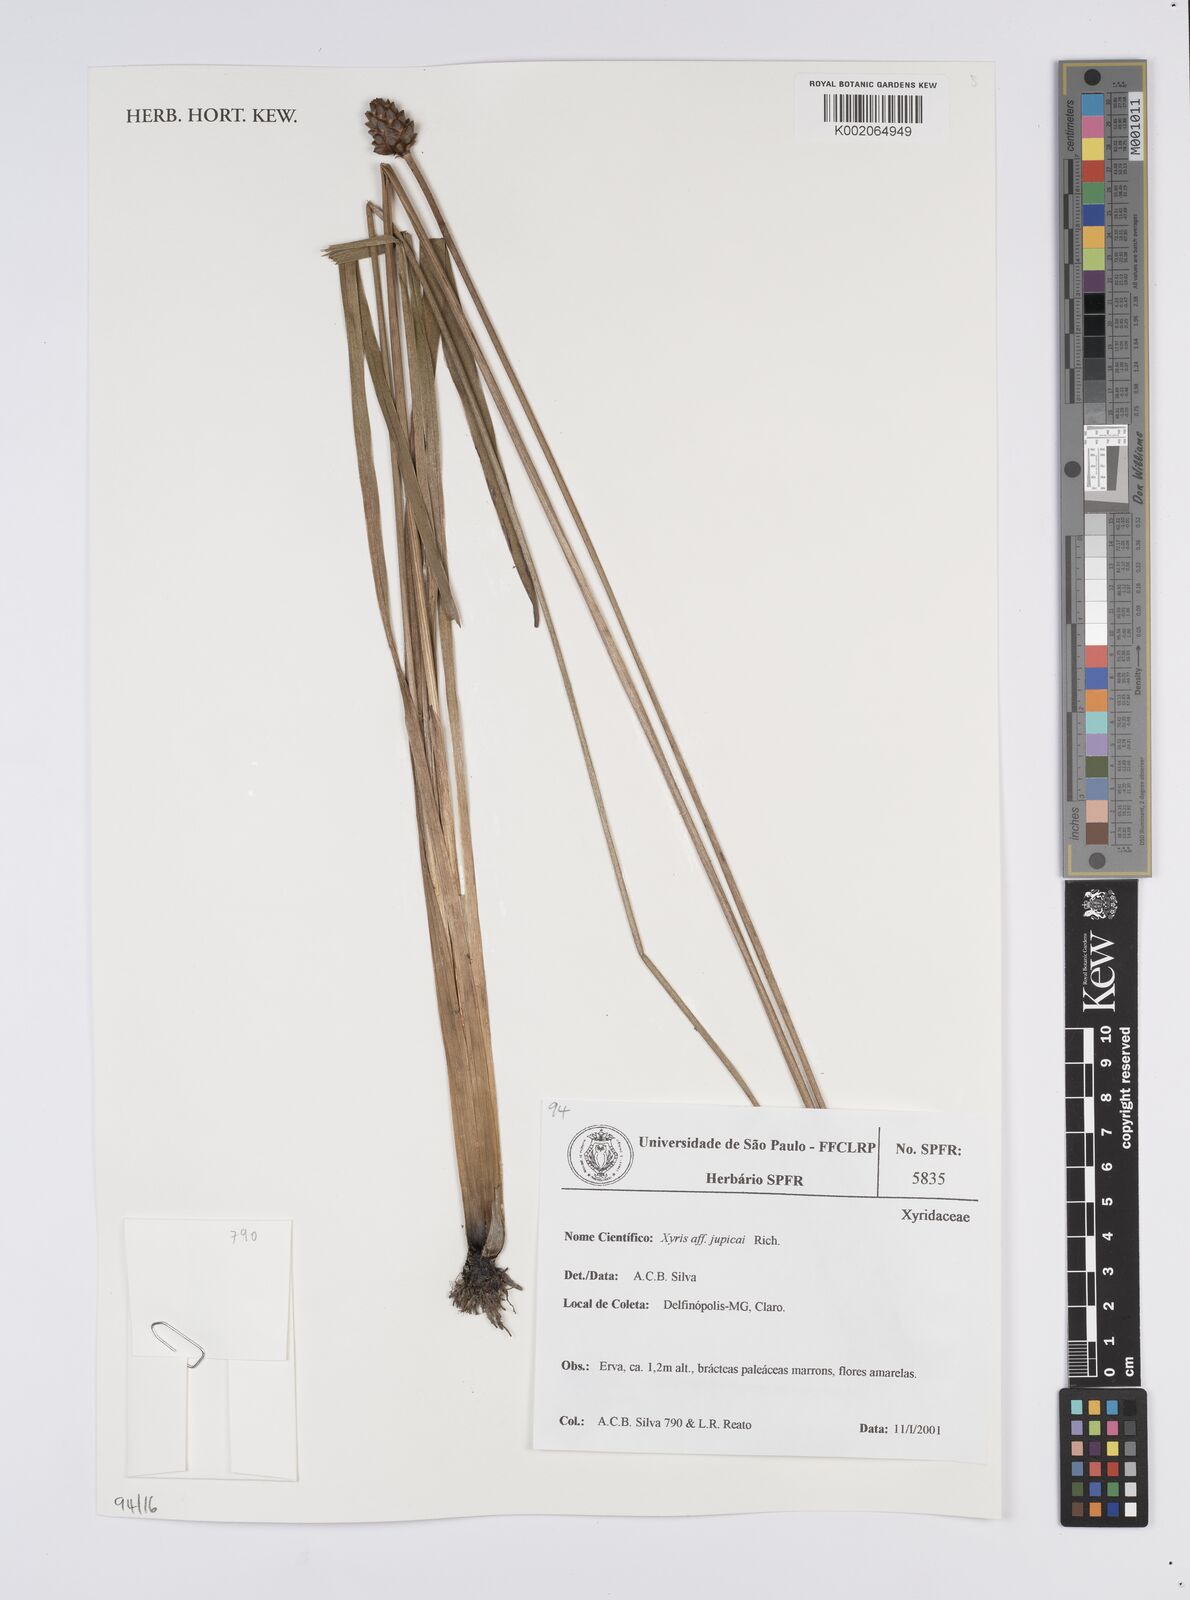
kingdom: Plantae
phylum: Tracheophyta
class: Liliopsida
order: Poales
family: Xyridaceae
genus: Xyris
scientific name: Xyris jupicai
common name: Richard's yelloweyed grass
